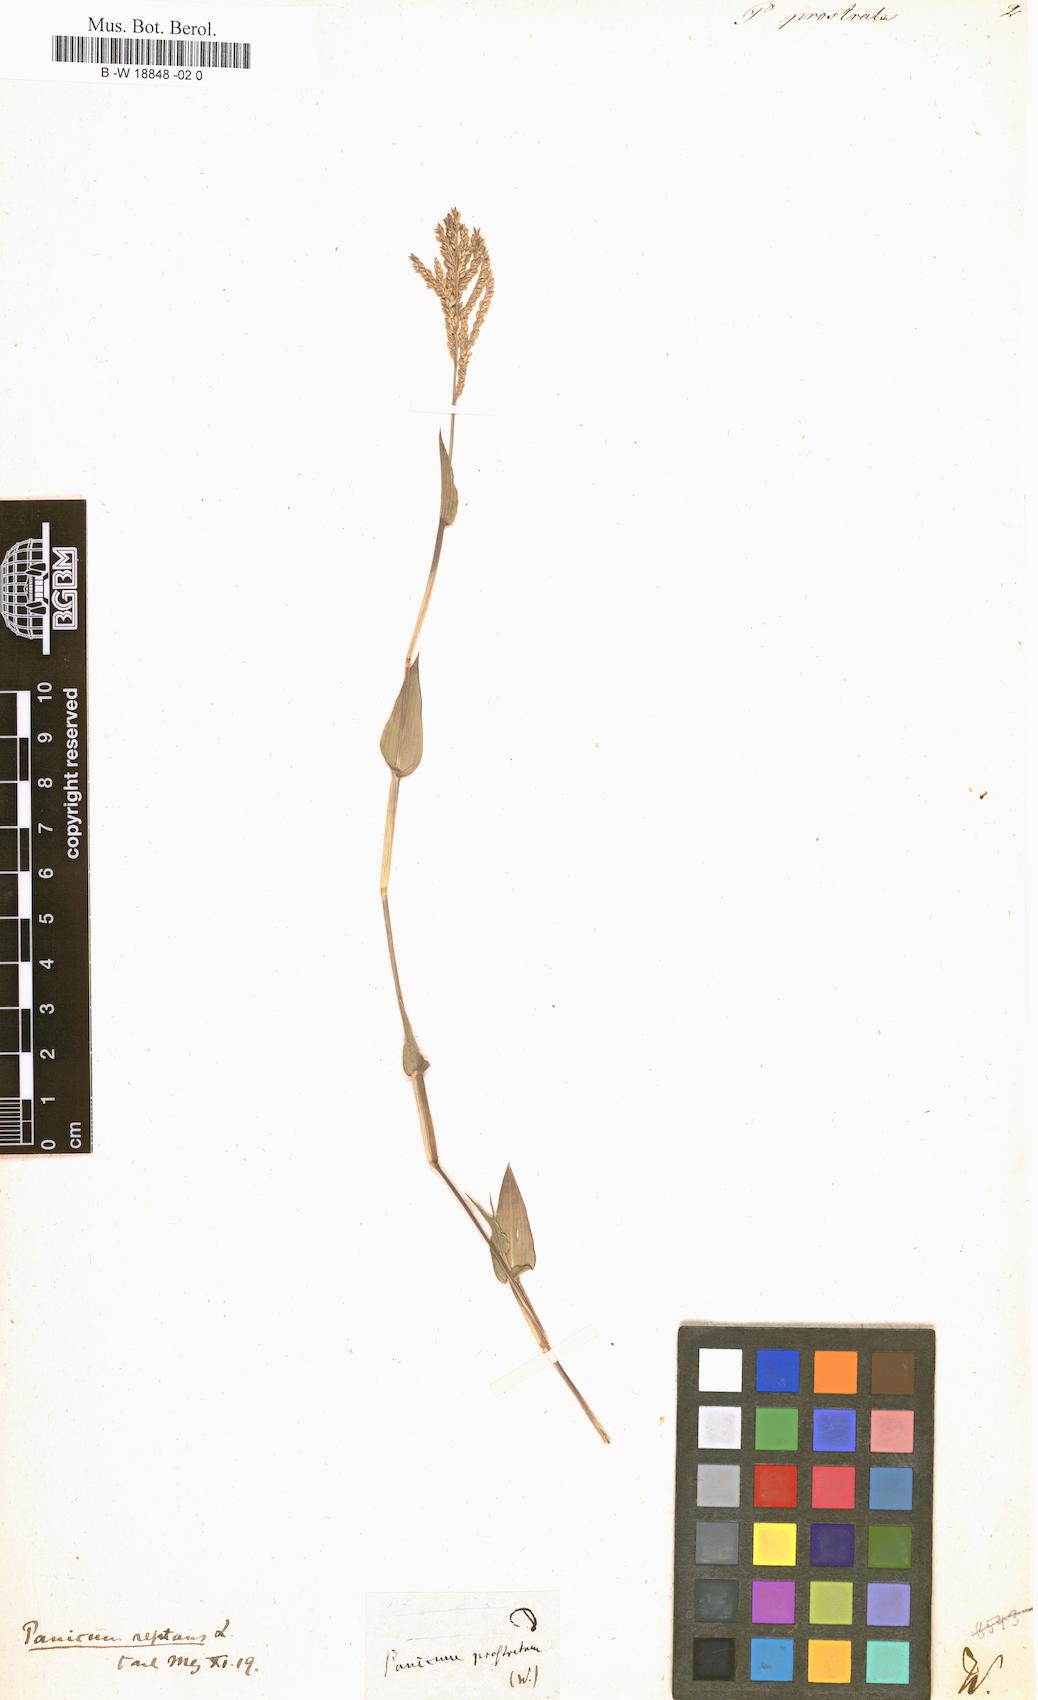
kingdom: Plantae
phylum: Tracheophyta
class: Liliopsida
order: Poales
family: Poaceae
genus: Urochloa
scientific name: Urochloa reptans
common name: Sprawling signalgrass
